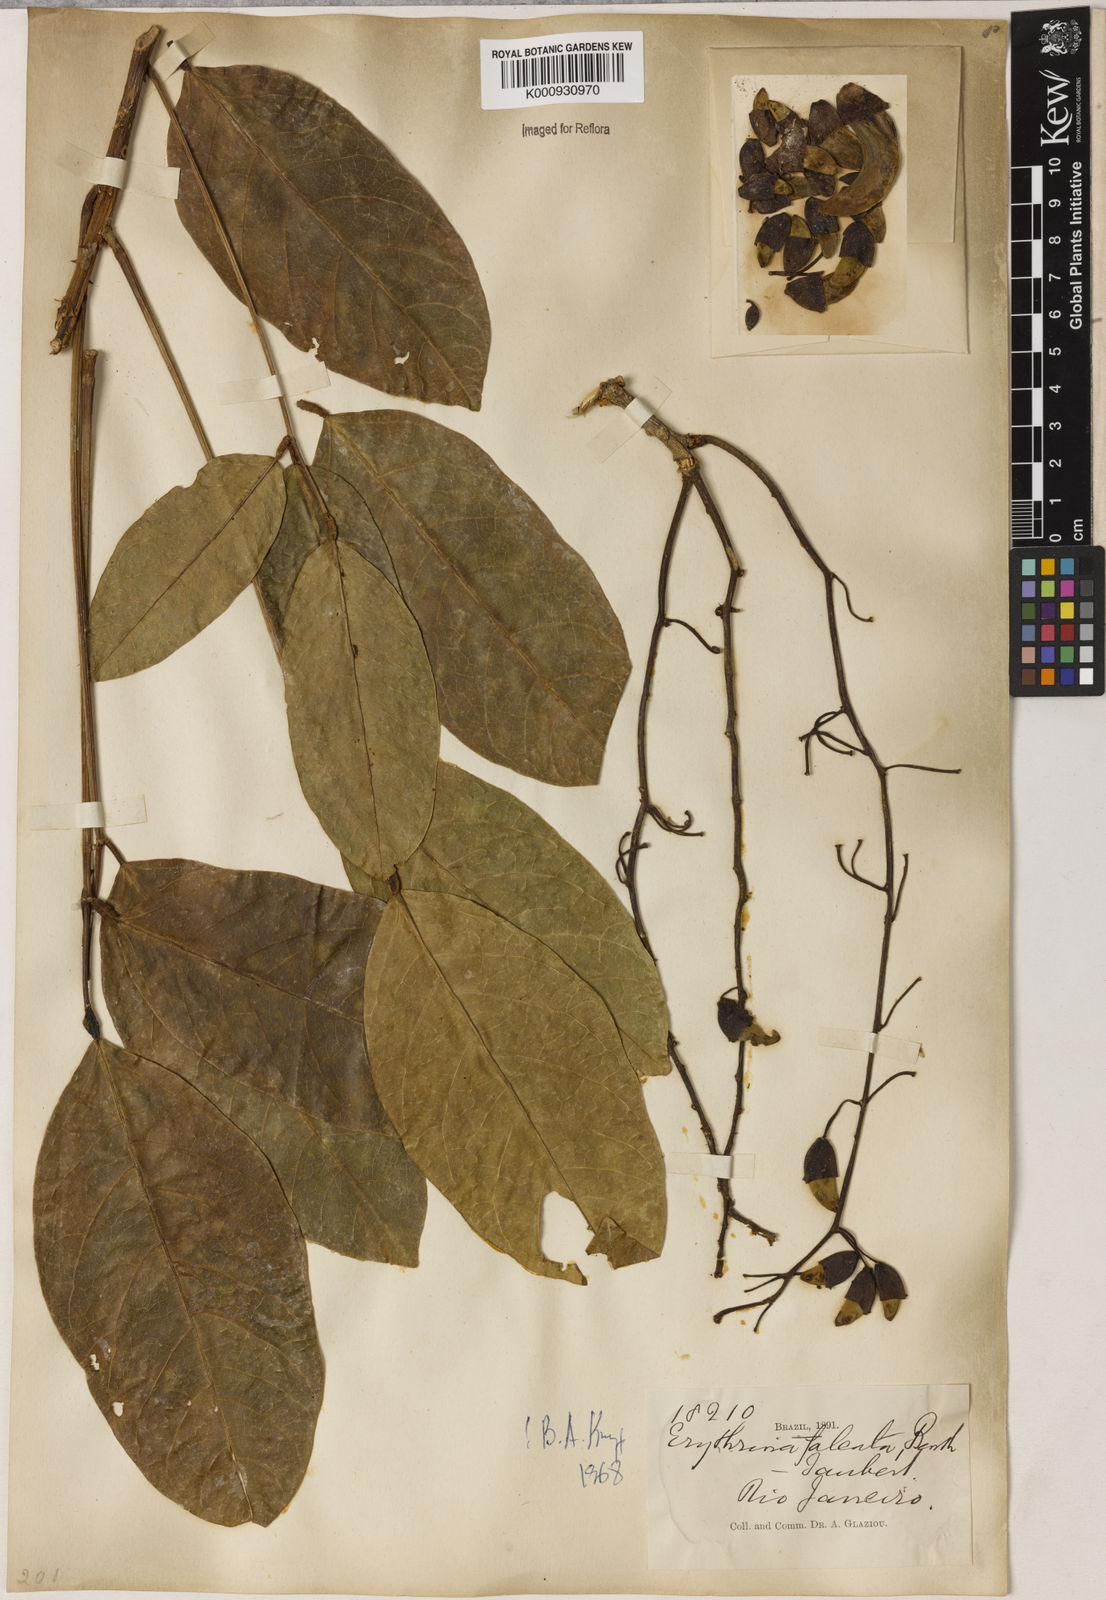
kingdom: Plantae
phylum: Tracheophyta
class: Magnoliopsida
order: Fabales
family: Fabaceae
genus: Erythrina
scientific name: Erythrina falcata
